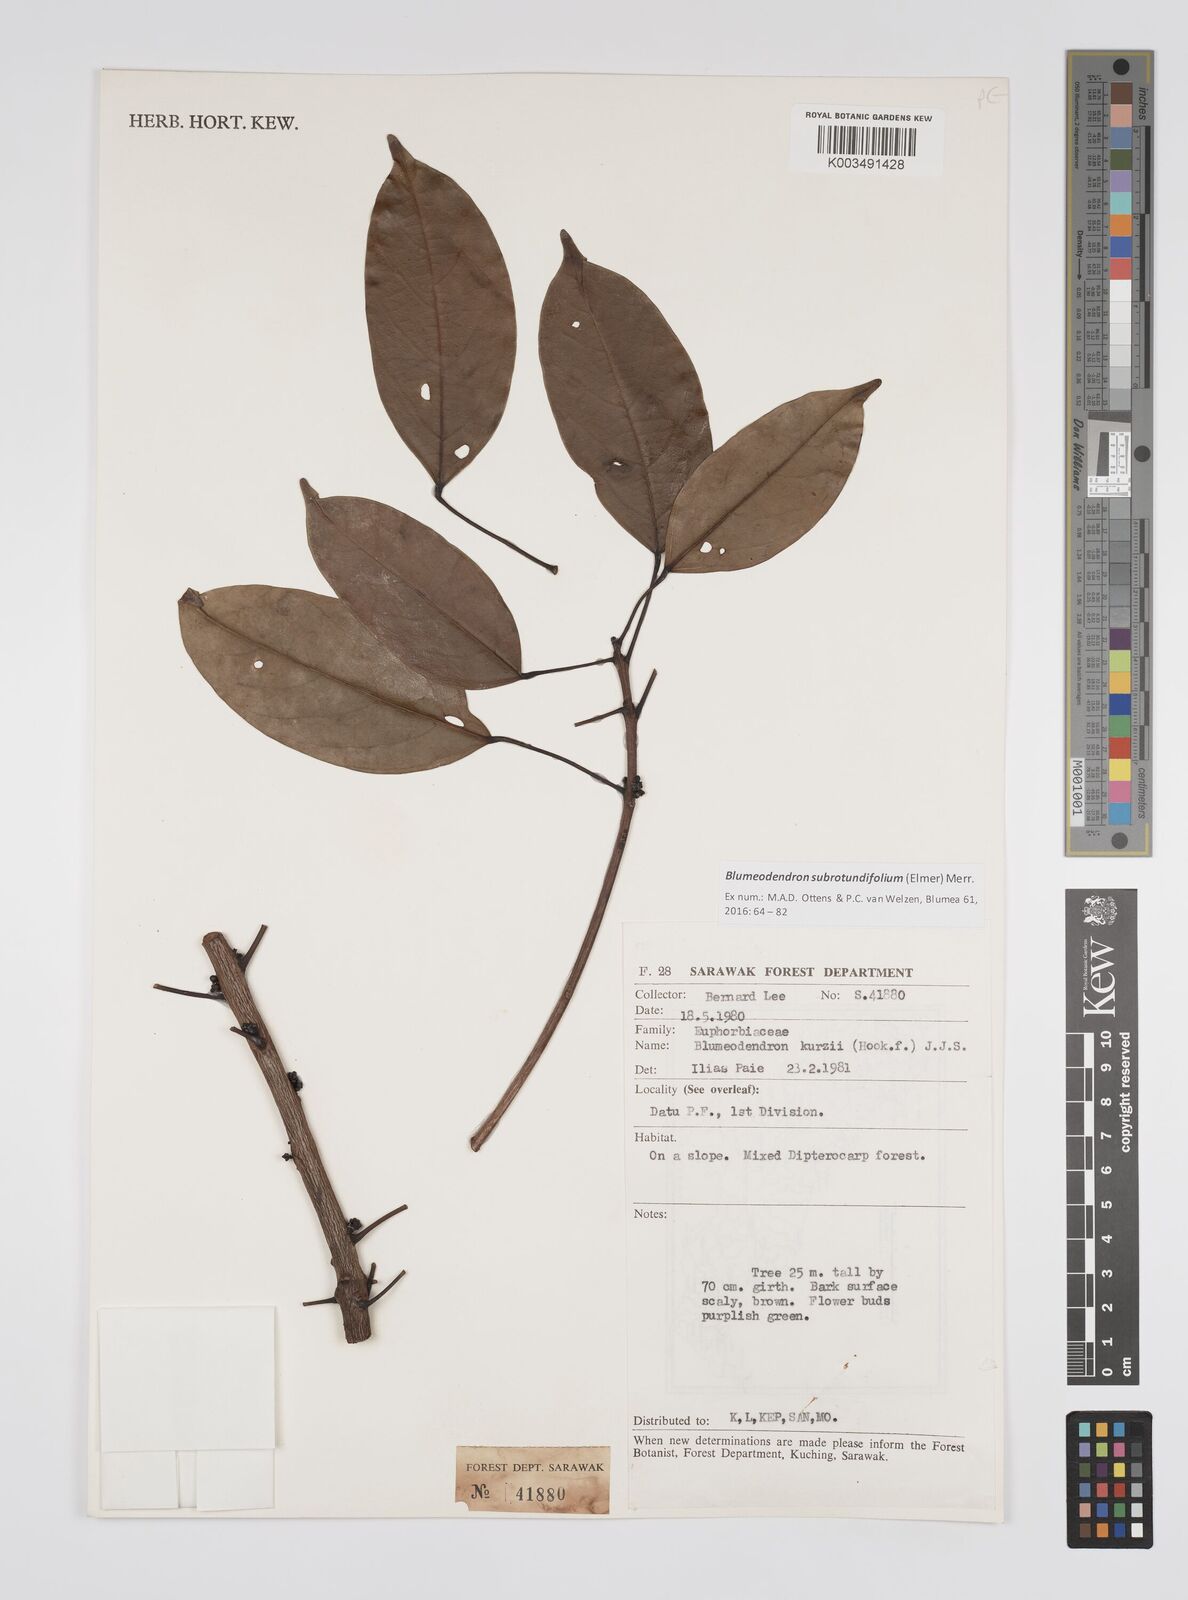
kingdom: Plantae
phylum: Tracheophyta
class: Magnoliopsida
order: Malpighiales
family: Euphorbiaceae
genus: Blumeodendron
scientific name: Blumeodendron subrotundifolium
